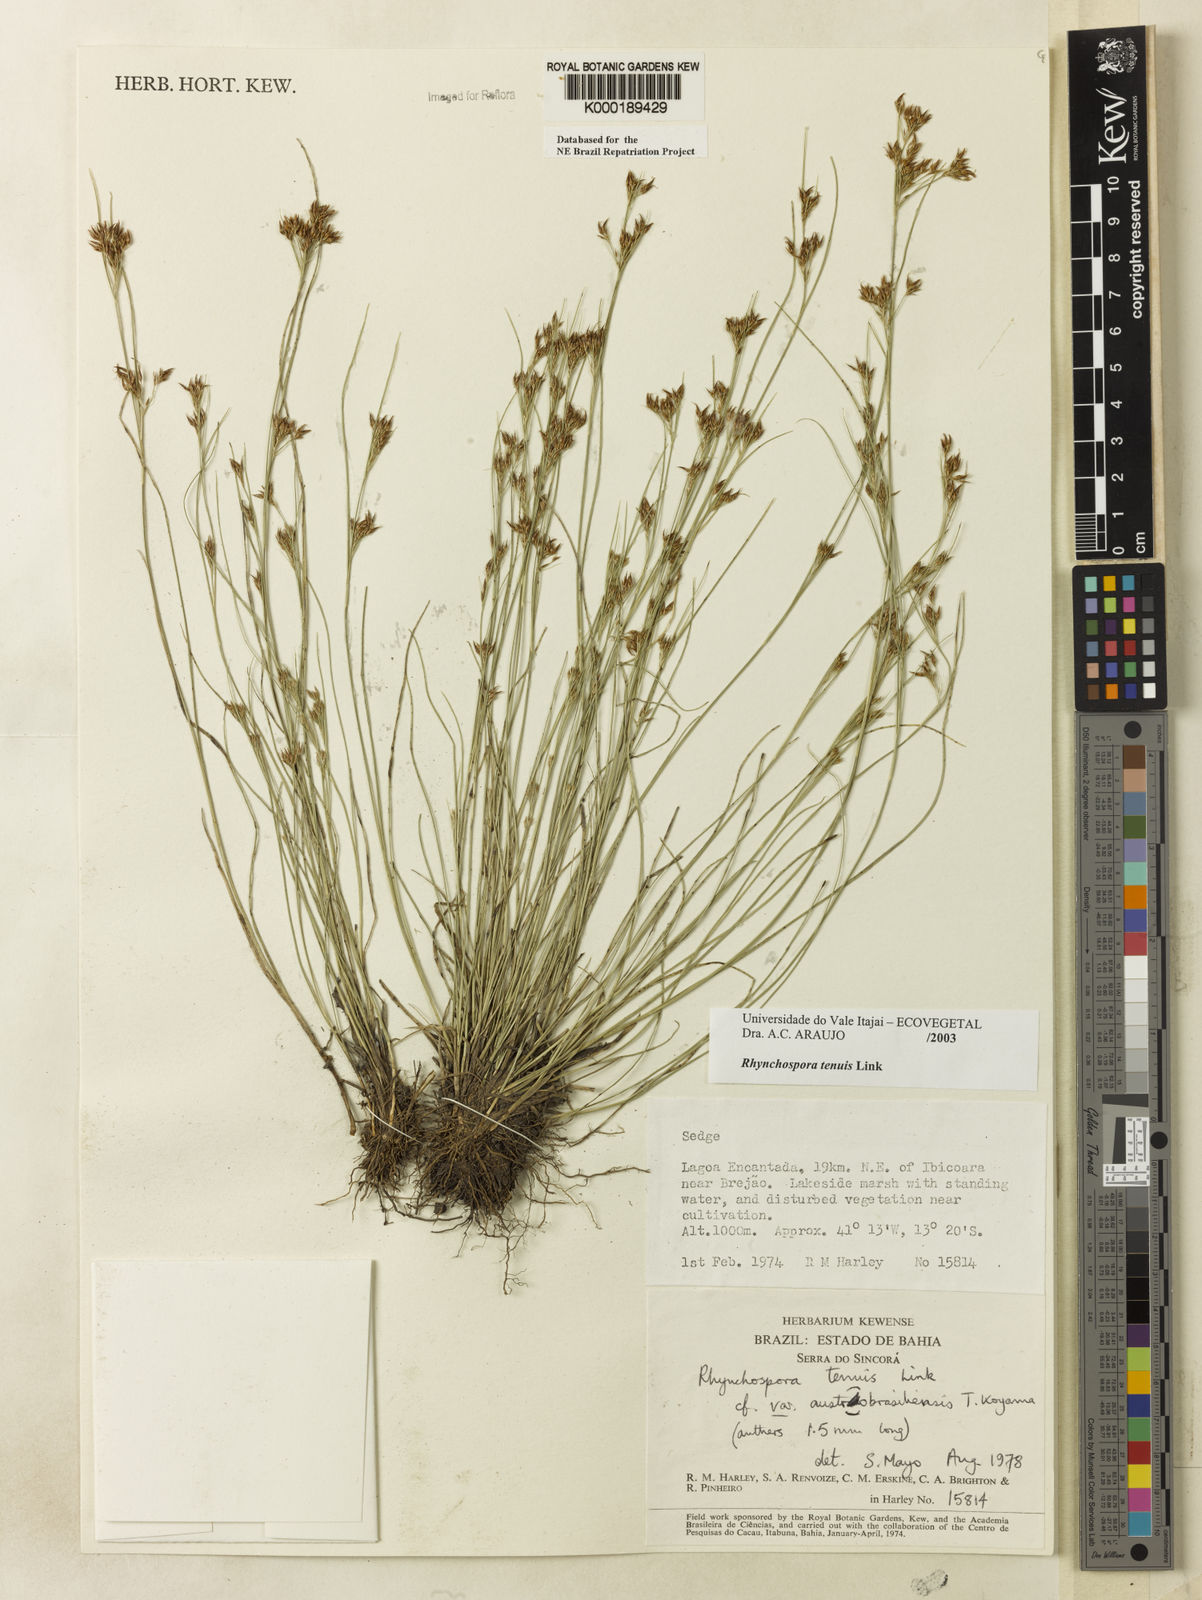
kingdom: Plantae
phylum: Tracheophyta
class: Liliopsida
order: Poales
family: Cyperaceae
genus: Rhynchospora
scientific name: Rhynchospora tenuis
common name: Quill beaksedge
